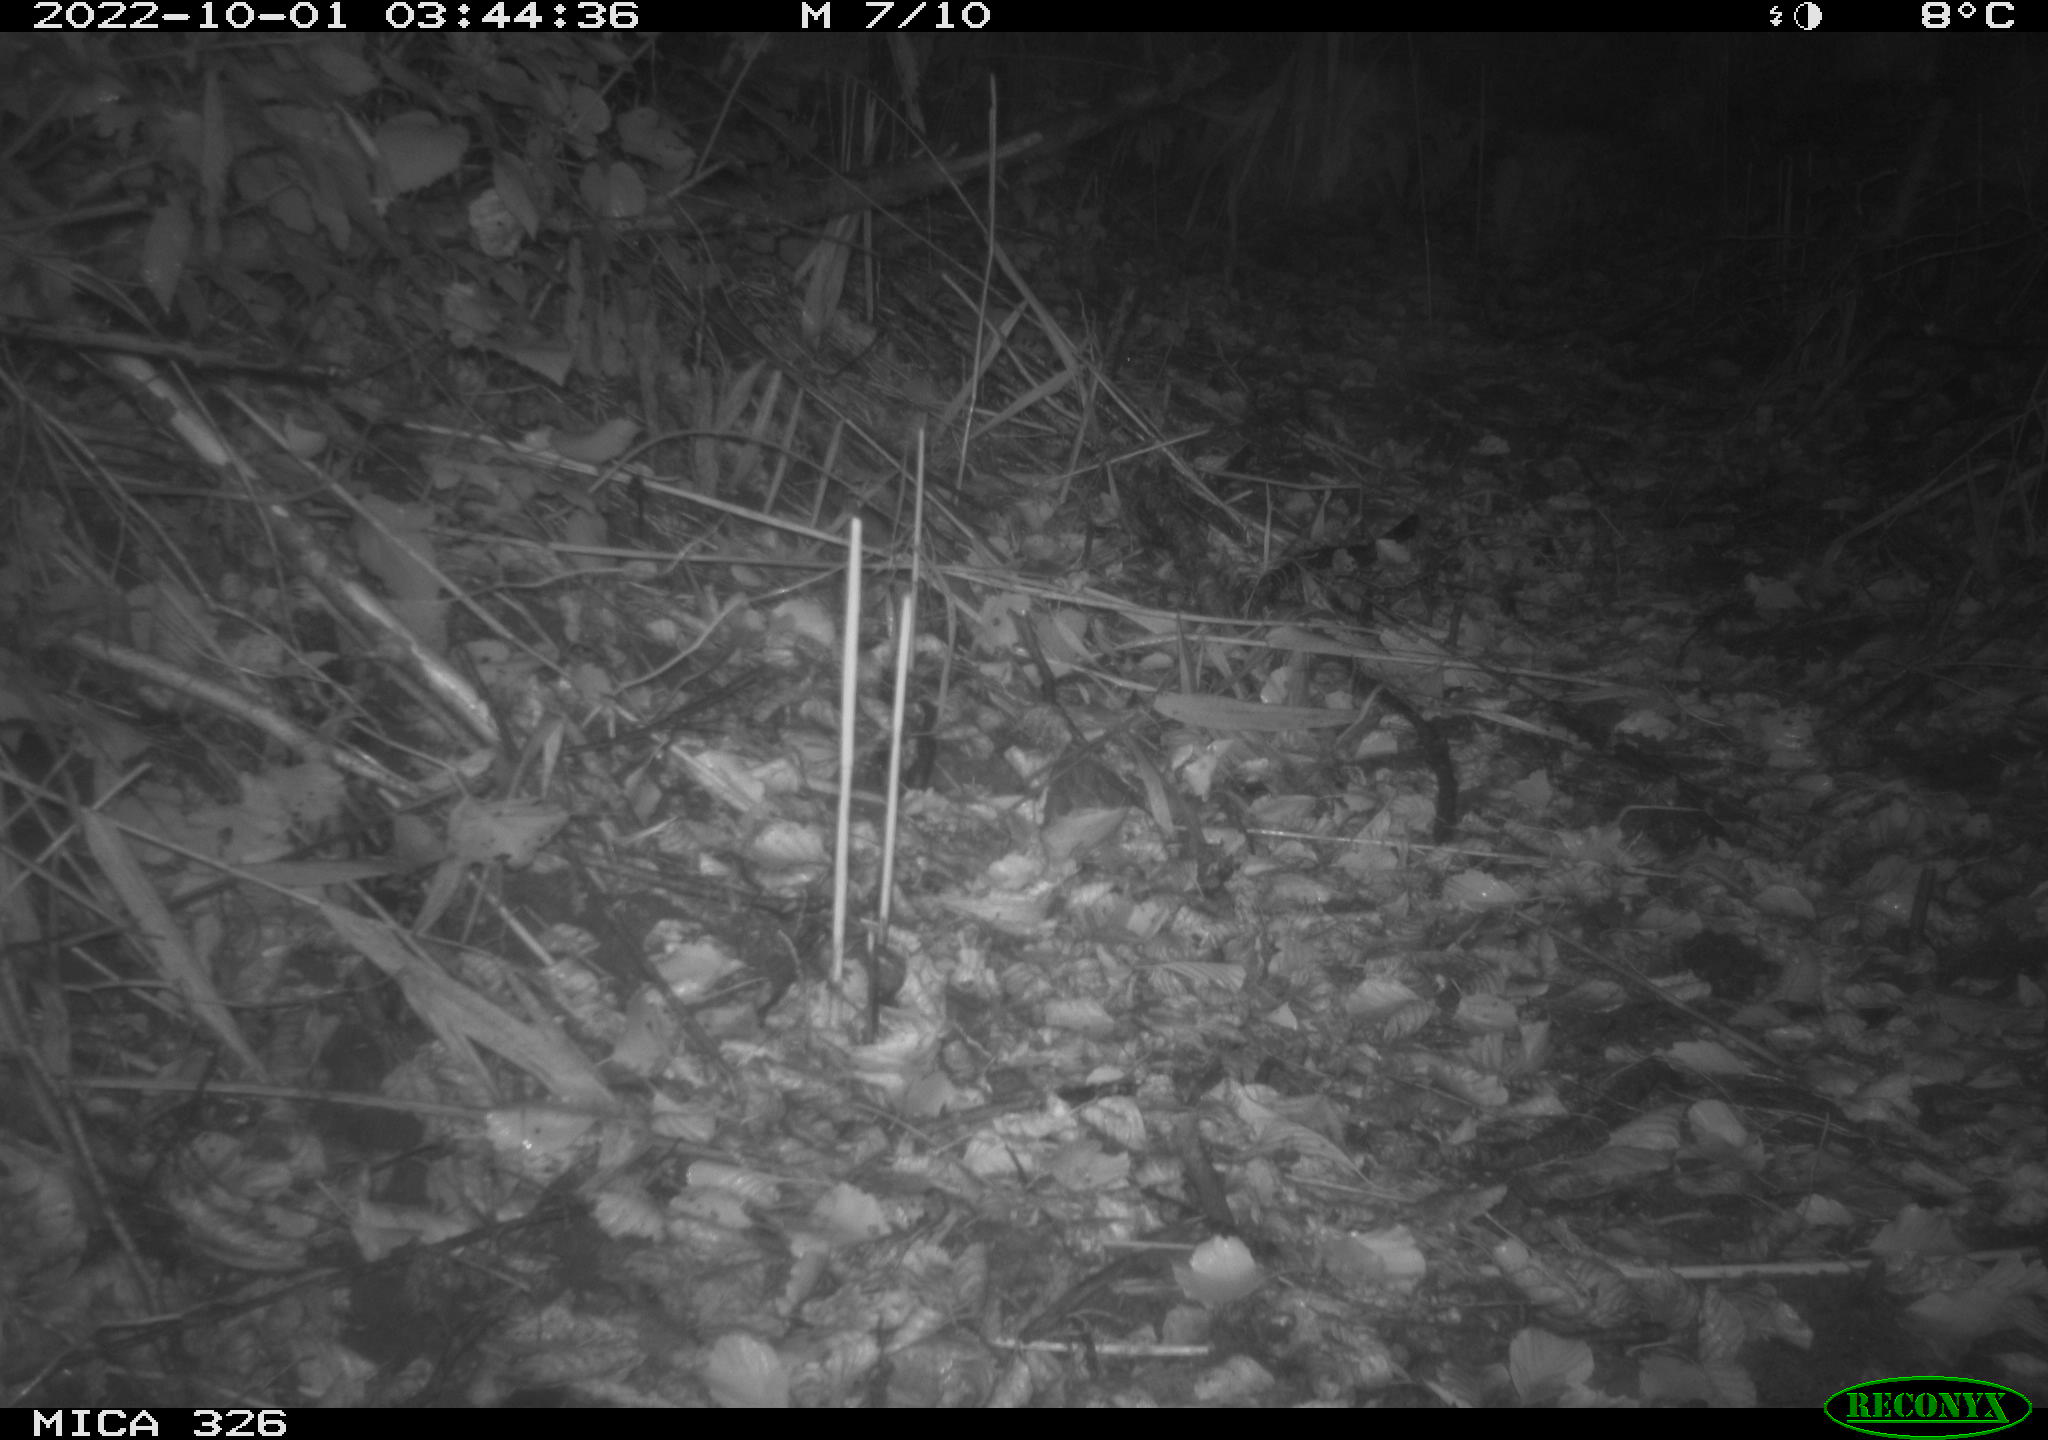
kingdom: Animalia
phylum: Chordata
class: Mammalia
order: Rodentia
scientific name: Rodentia
